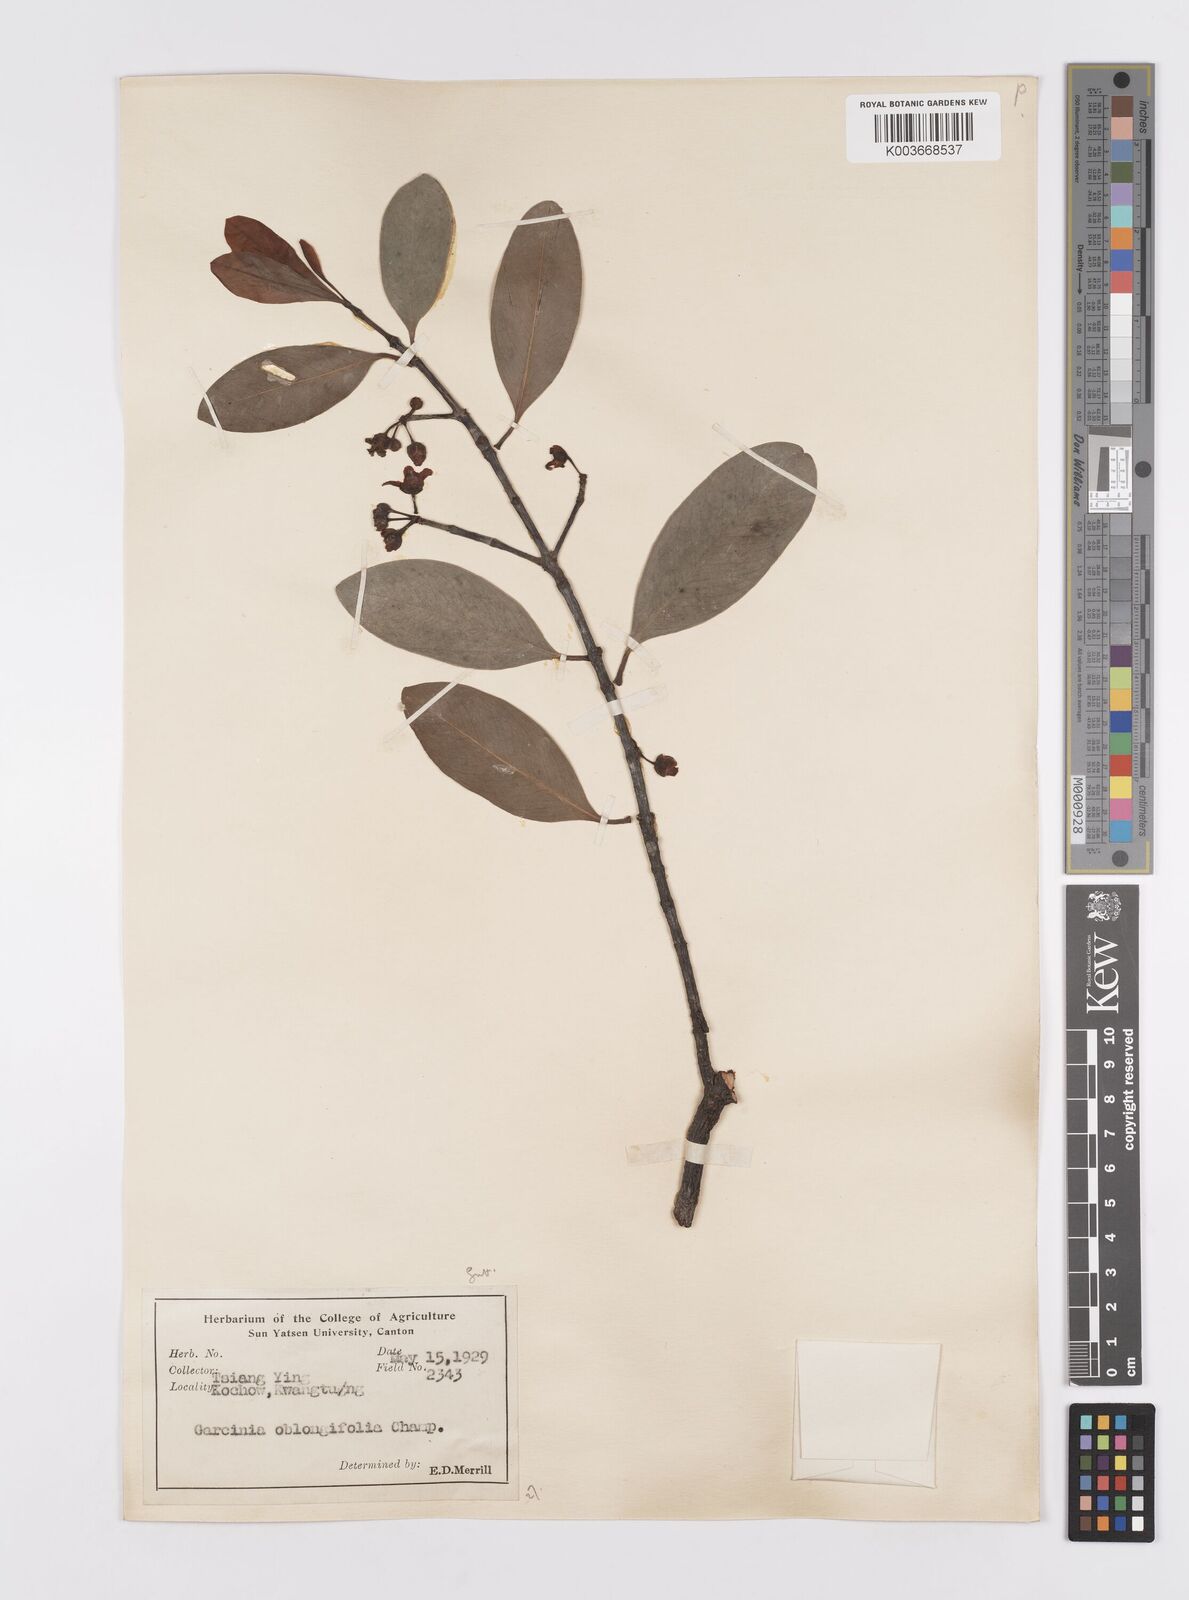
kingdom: Plantae
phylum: Tracheophyta
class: Magnoliopsida
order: Malpighiales
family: Clusiaceae
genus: Garcinia
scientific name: Garcinia oblongifolia
